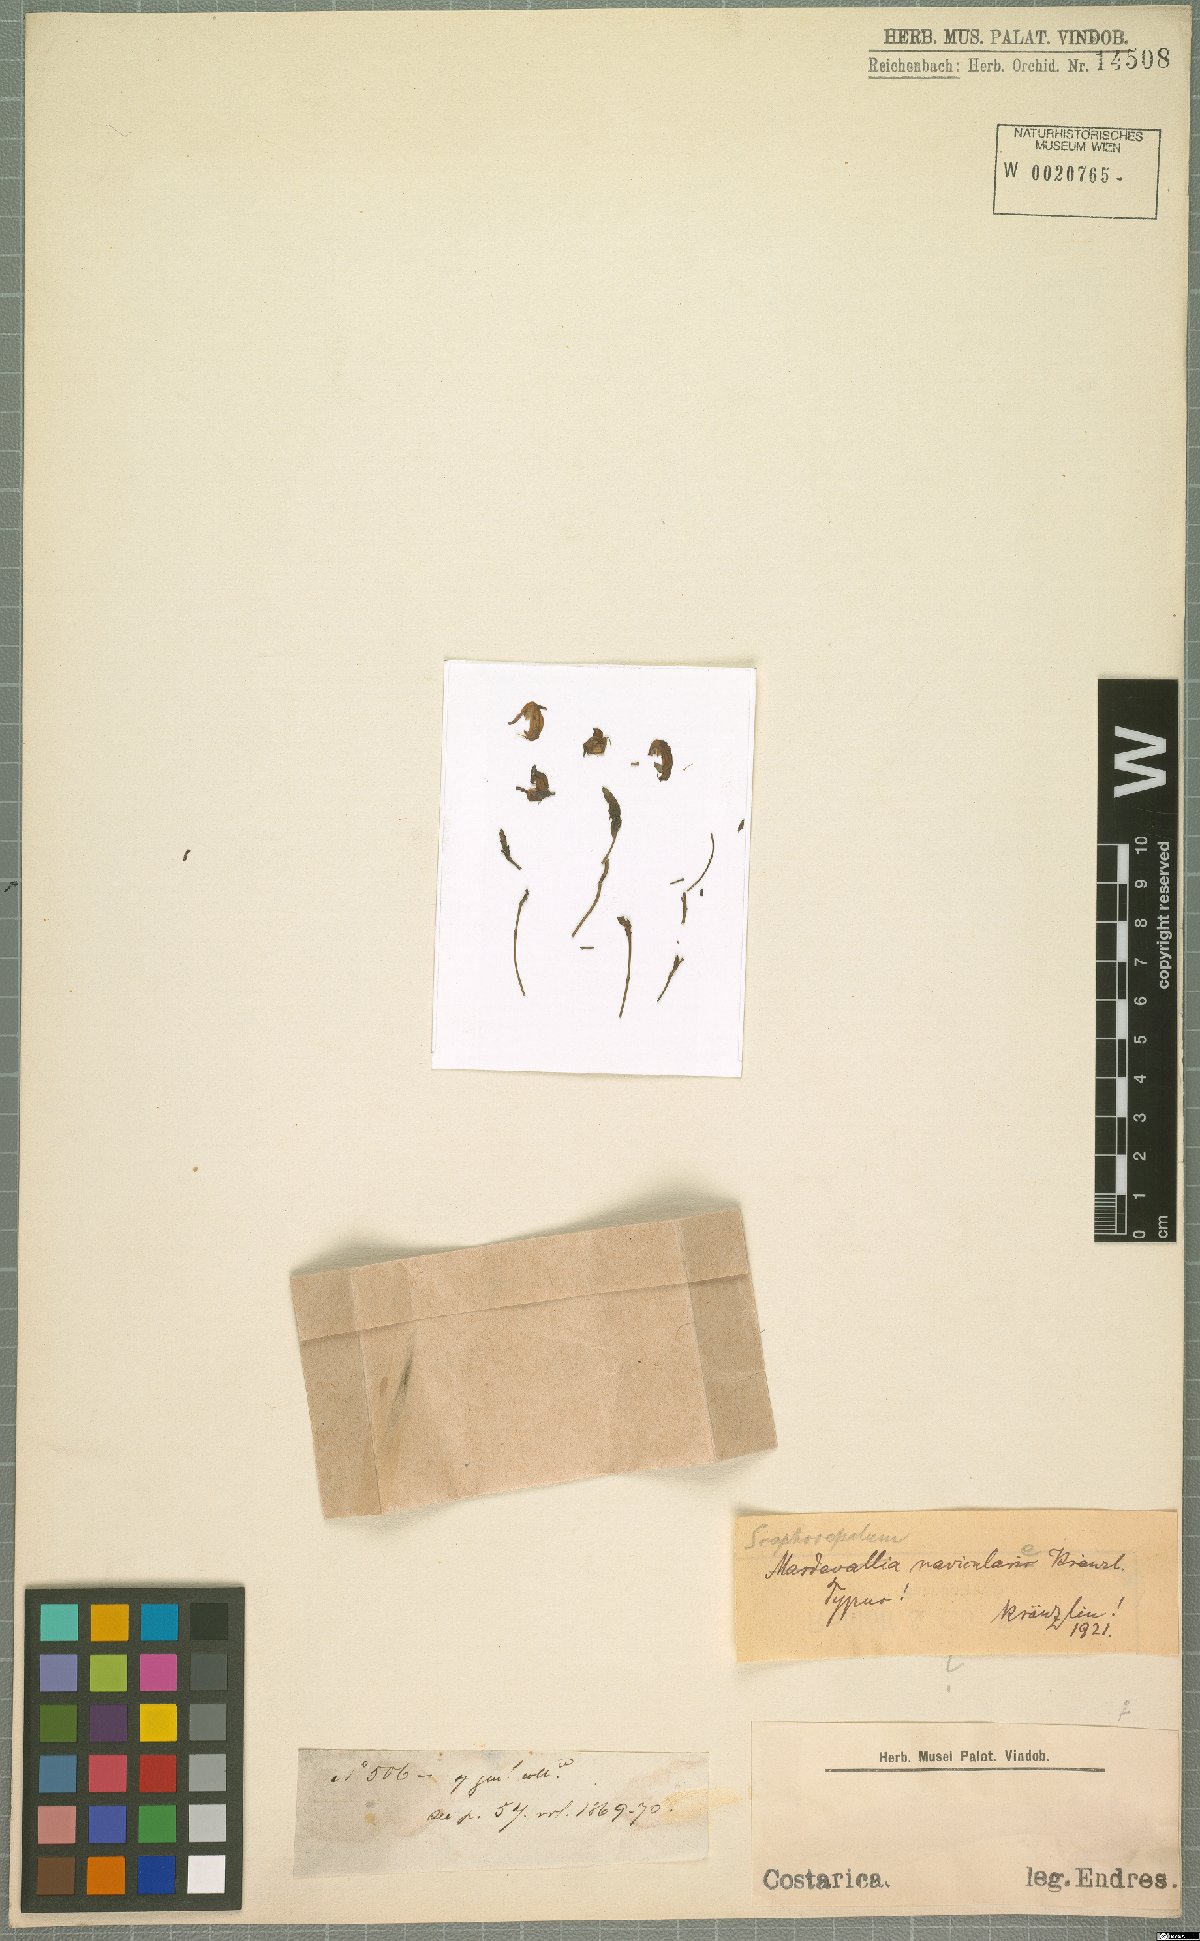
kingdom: Plantae
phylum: Tracheophyta
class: Liliopsida
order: Asparagales
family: Orchidaceae
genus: Scaphosepalum
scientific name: Scaphosepalum anchoriferum
